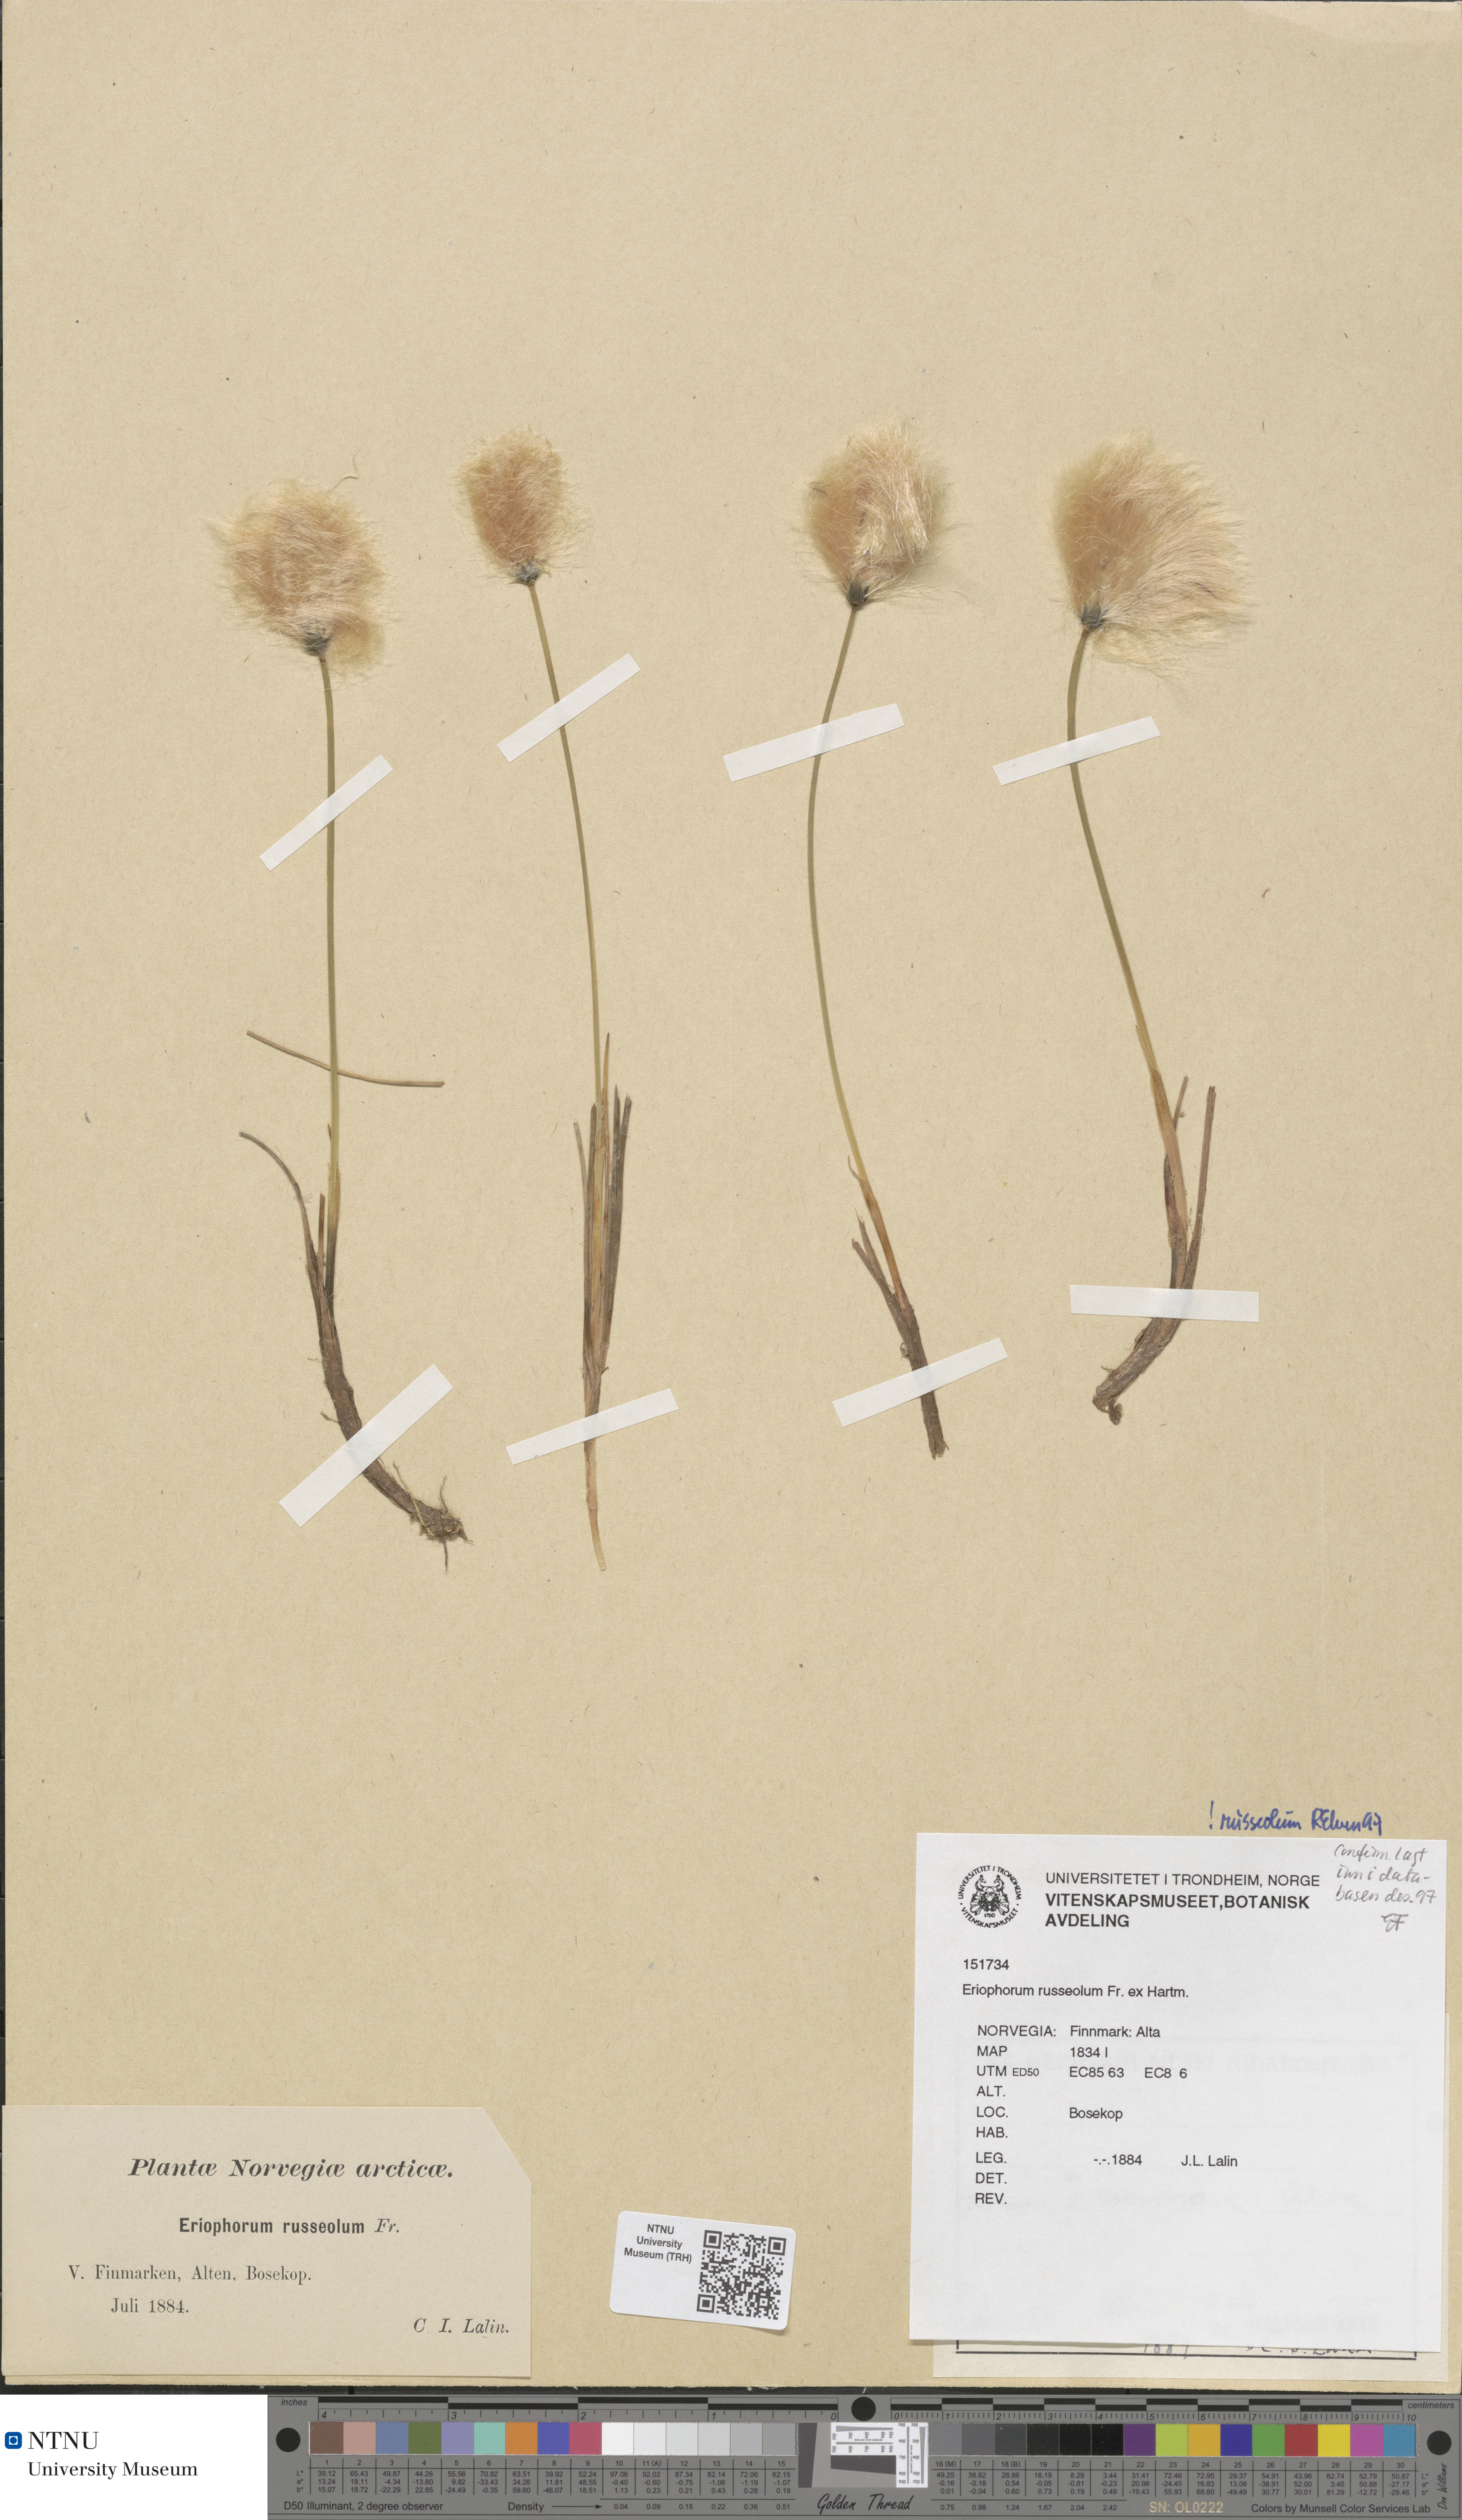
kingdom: Plantae
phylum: Tracheophyta
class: Liliopsida
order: Poales
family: Cyperaceae
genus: Eriophorum
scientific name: Eriophorum russeolum
